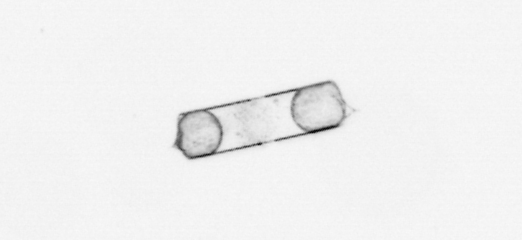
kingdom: Chromista
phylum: Ochrophyta
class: Bacillariophyceae
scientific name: Bacillariophyceae
